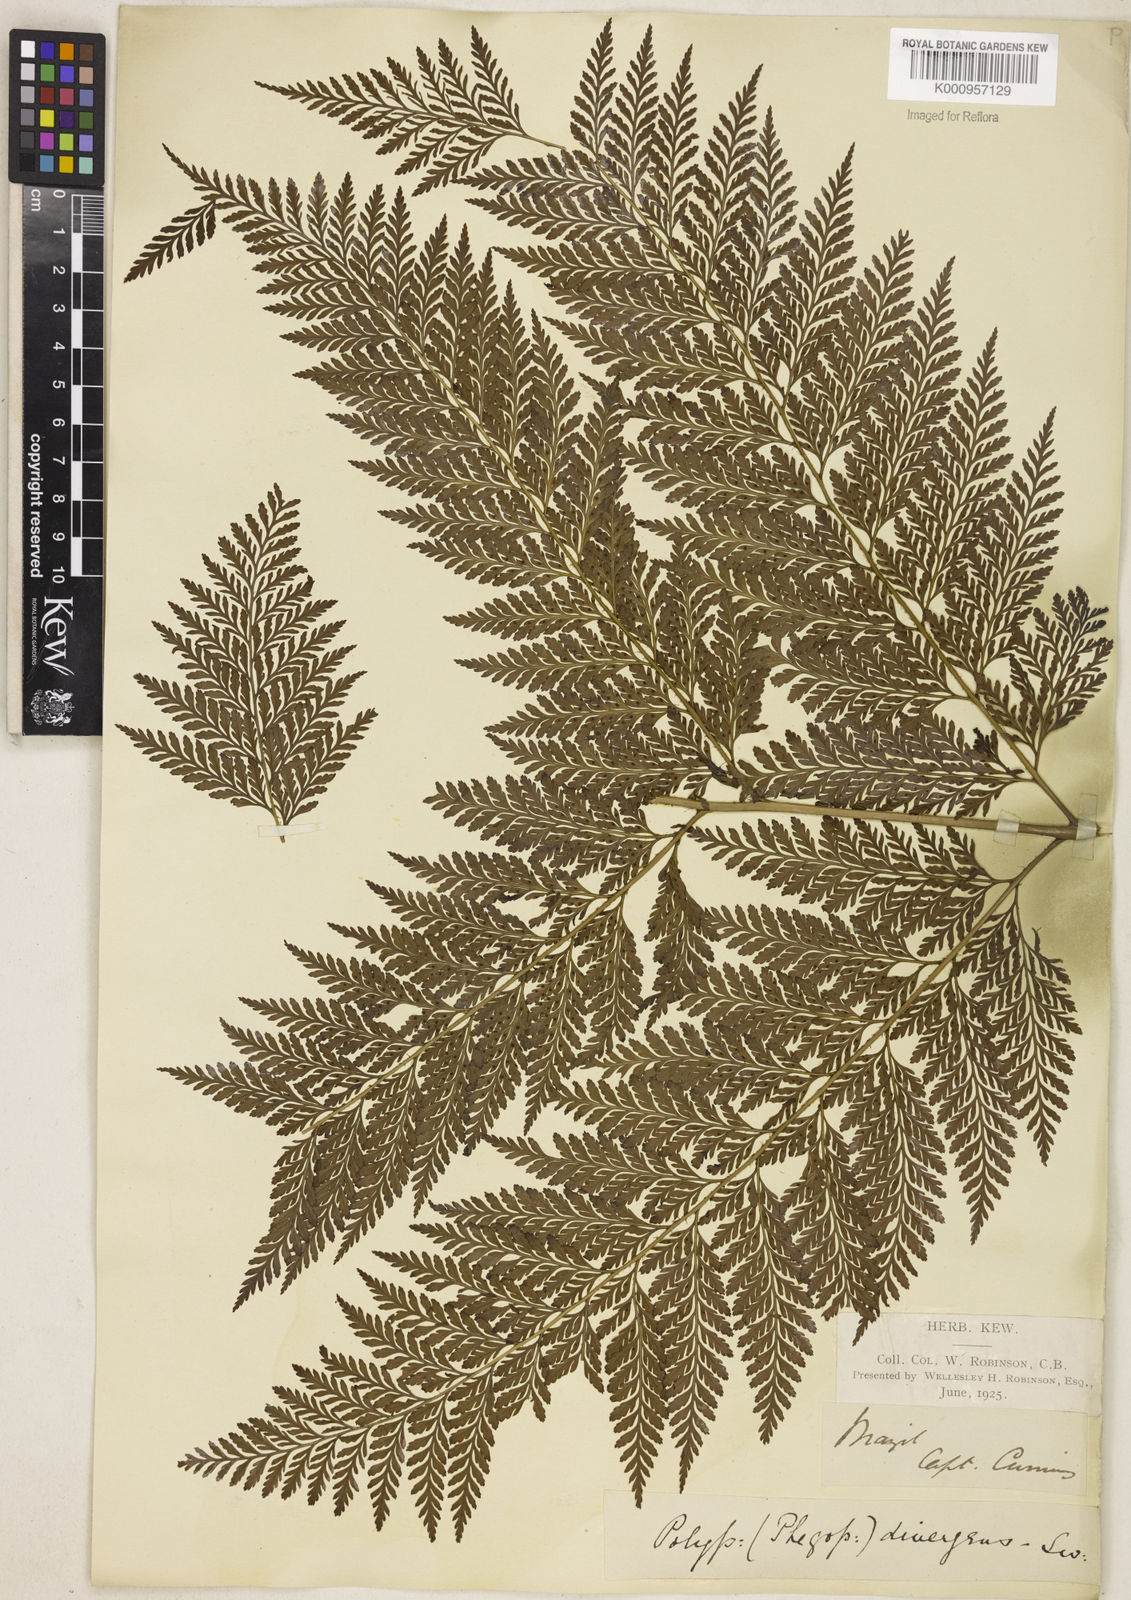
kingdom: Plantae
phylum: Tracheophyta
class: Polypodiopsida
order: Polypodiales
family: Dryopteridaceae
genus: Parapolystichum
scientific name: Parapolystichum effusum
